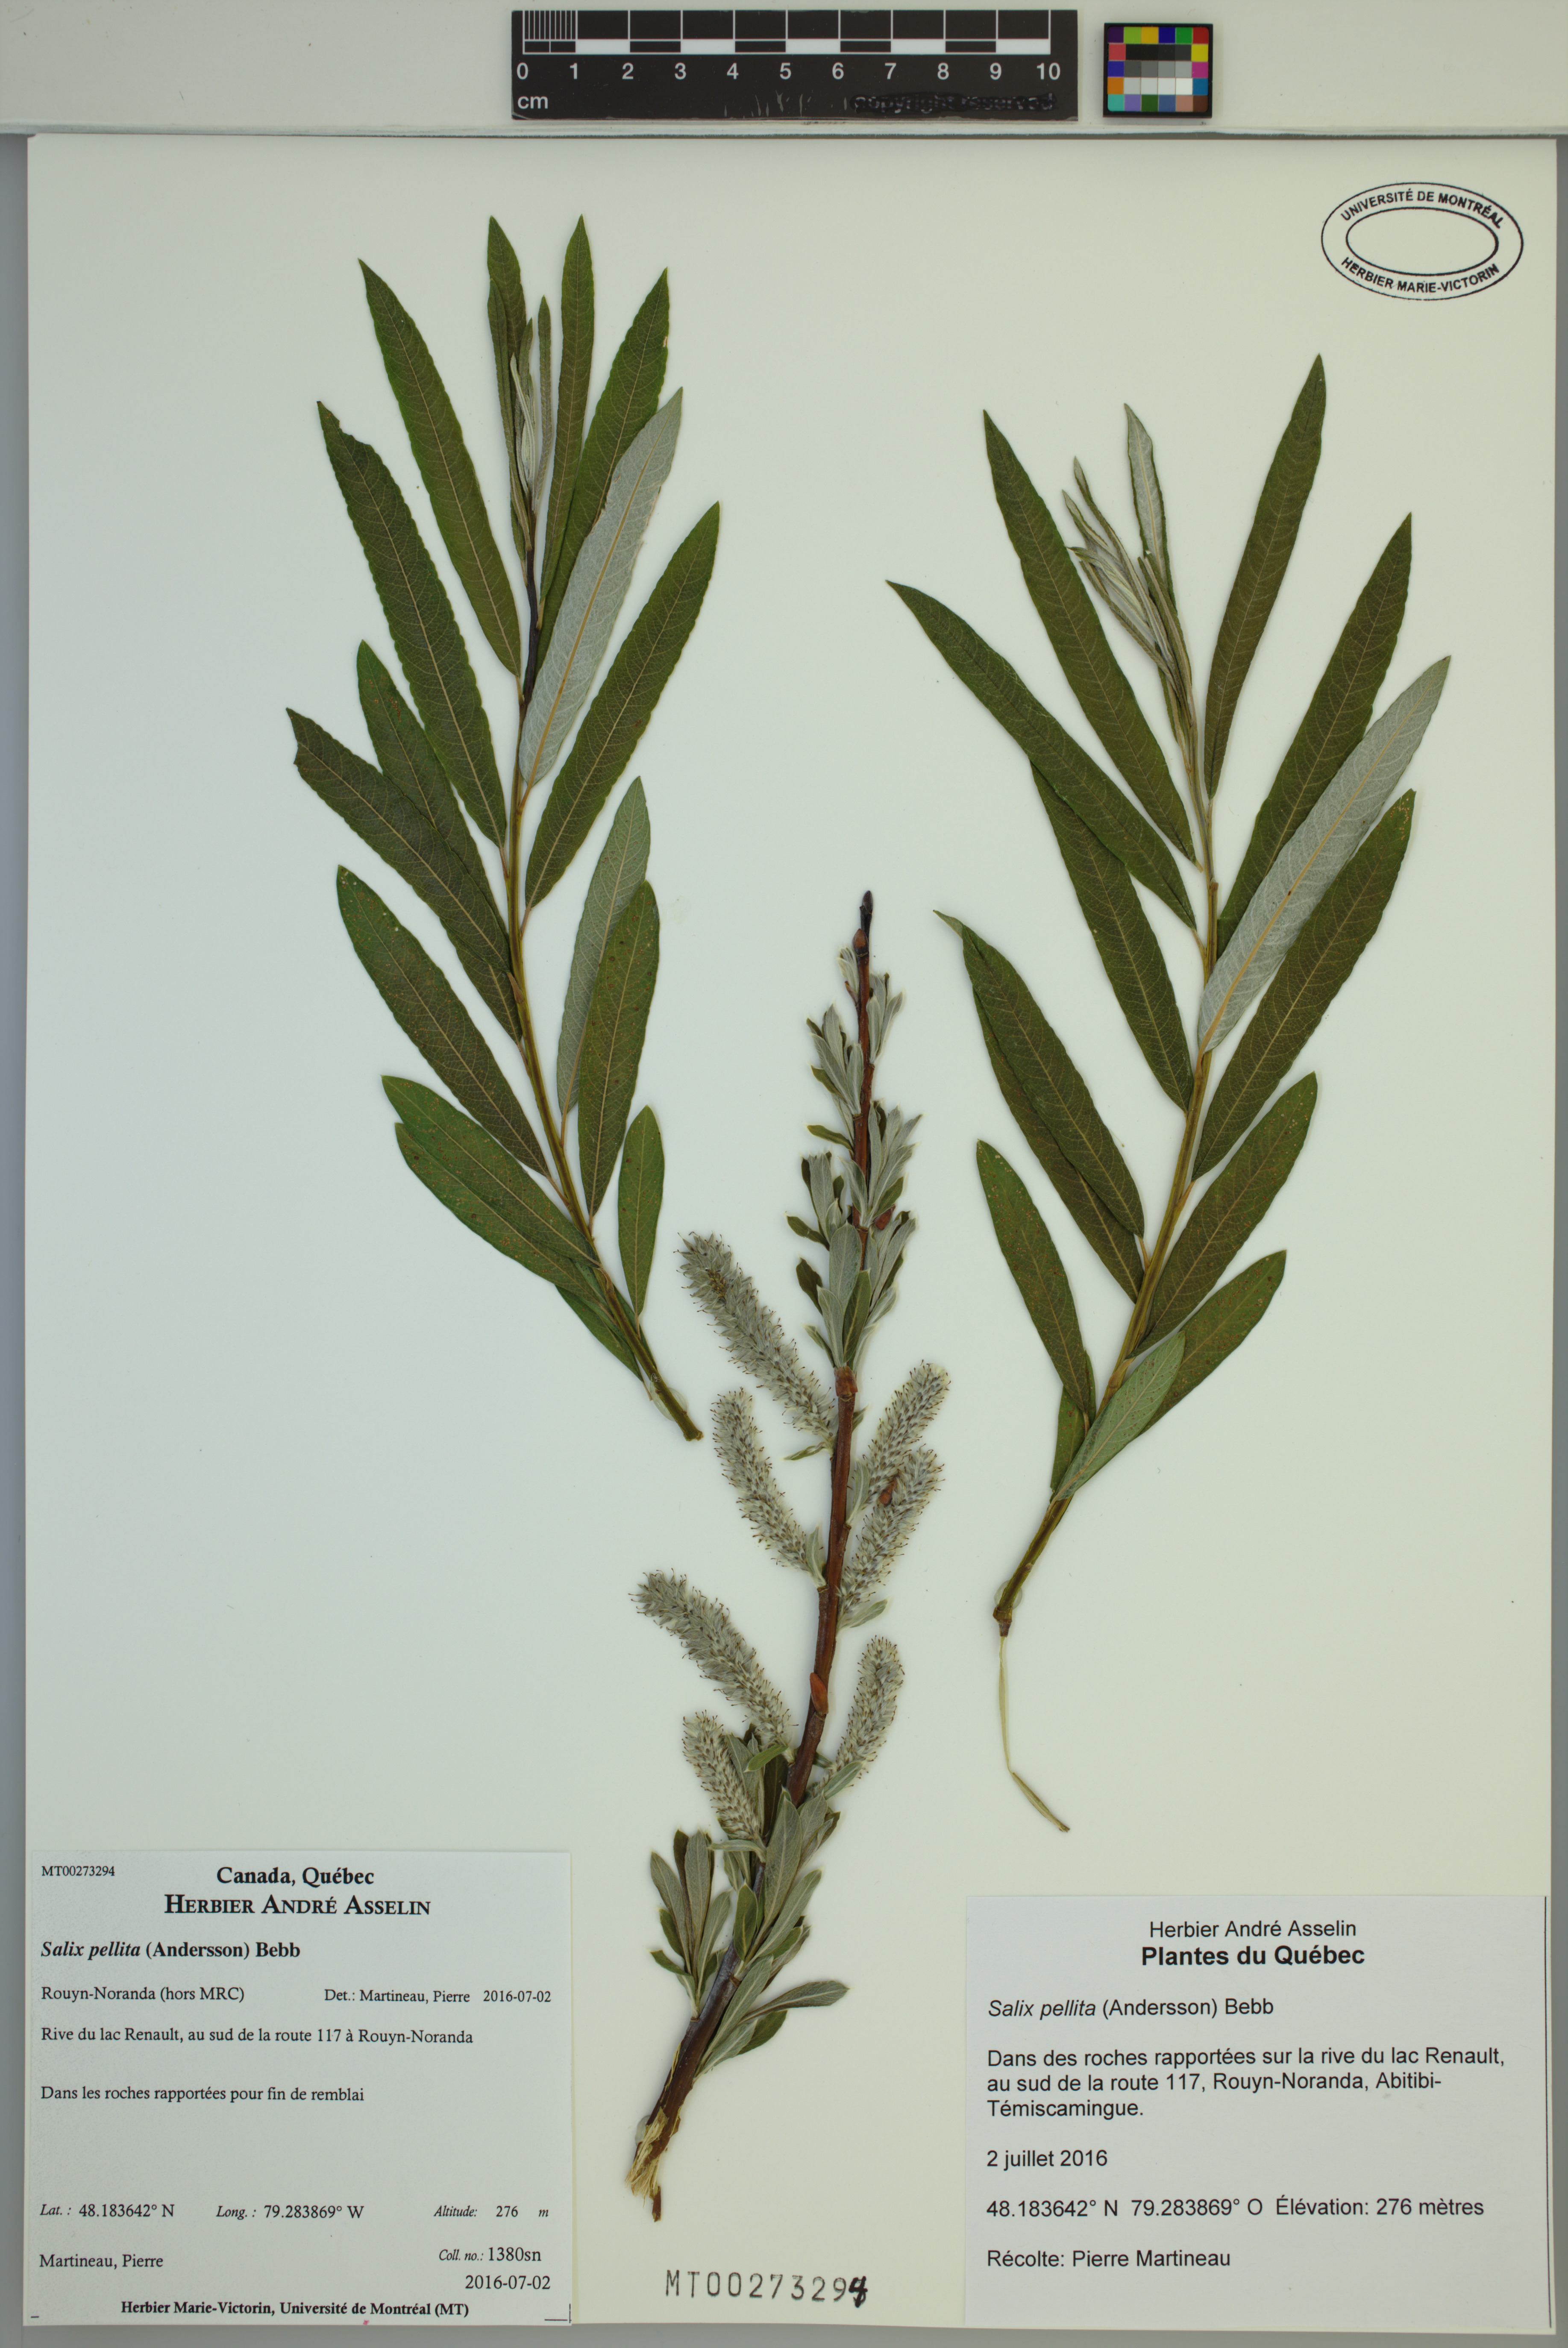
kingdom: Plantae
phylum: Tracheophyta
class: Magnoliopsida
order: Malpighiales
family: Salicaceae
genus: Salix
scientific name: Salix pellita
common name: Satiny willow
